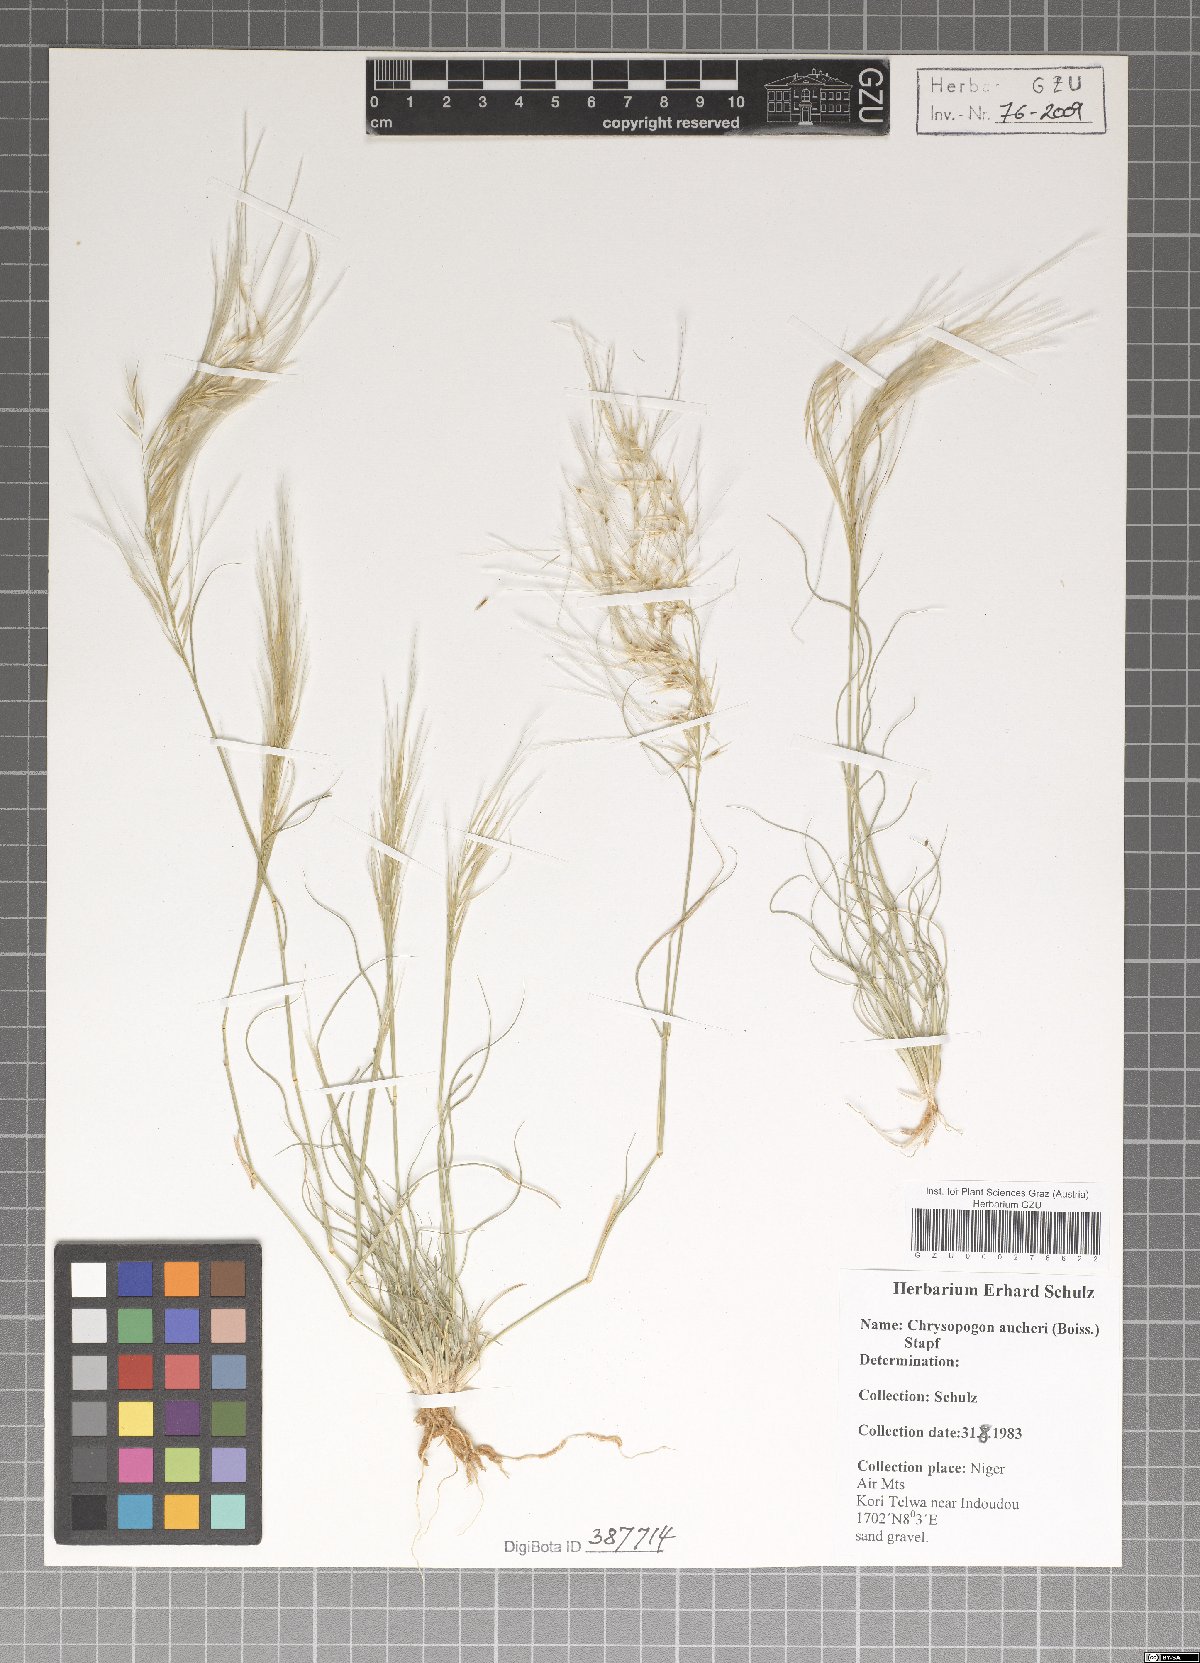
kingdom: Plantae
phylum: Tracheophyta
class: Liliopsida
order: Poales
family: Poaceae
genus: Chrysopogon
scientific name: Chrysopogon aucheri
